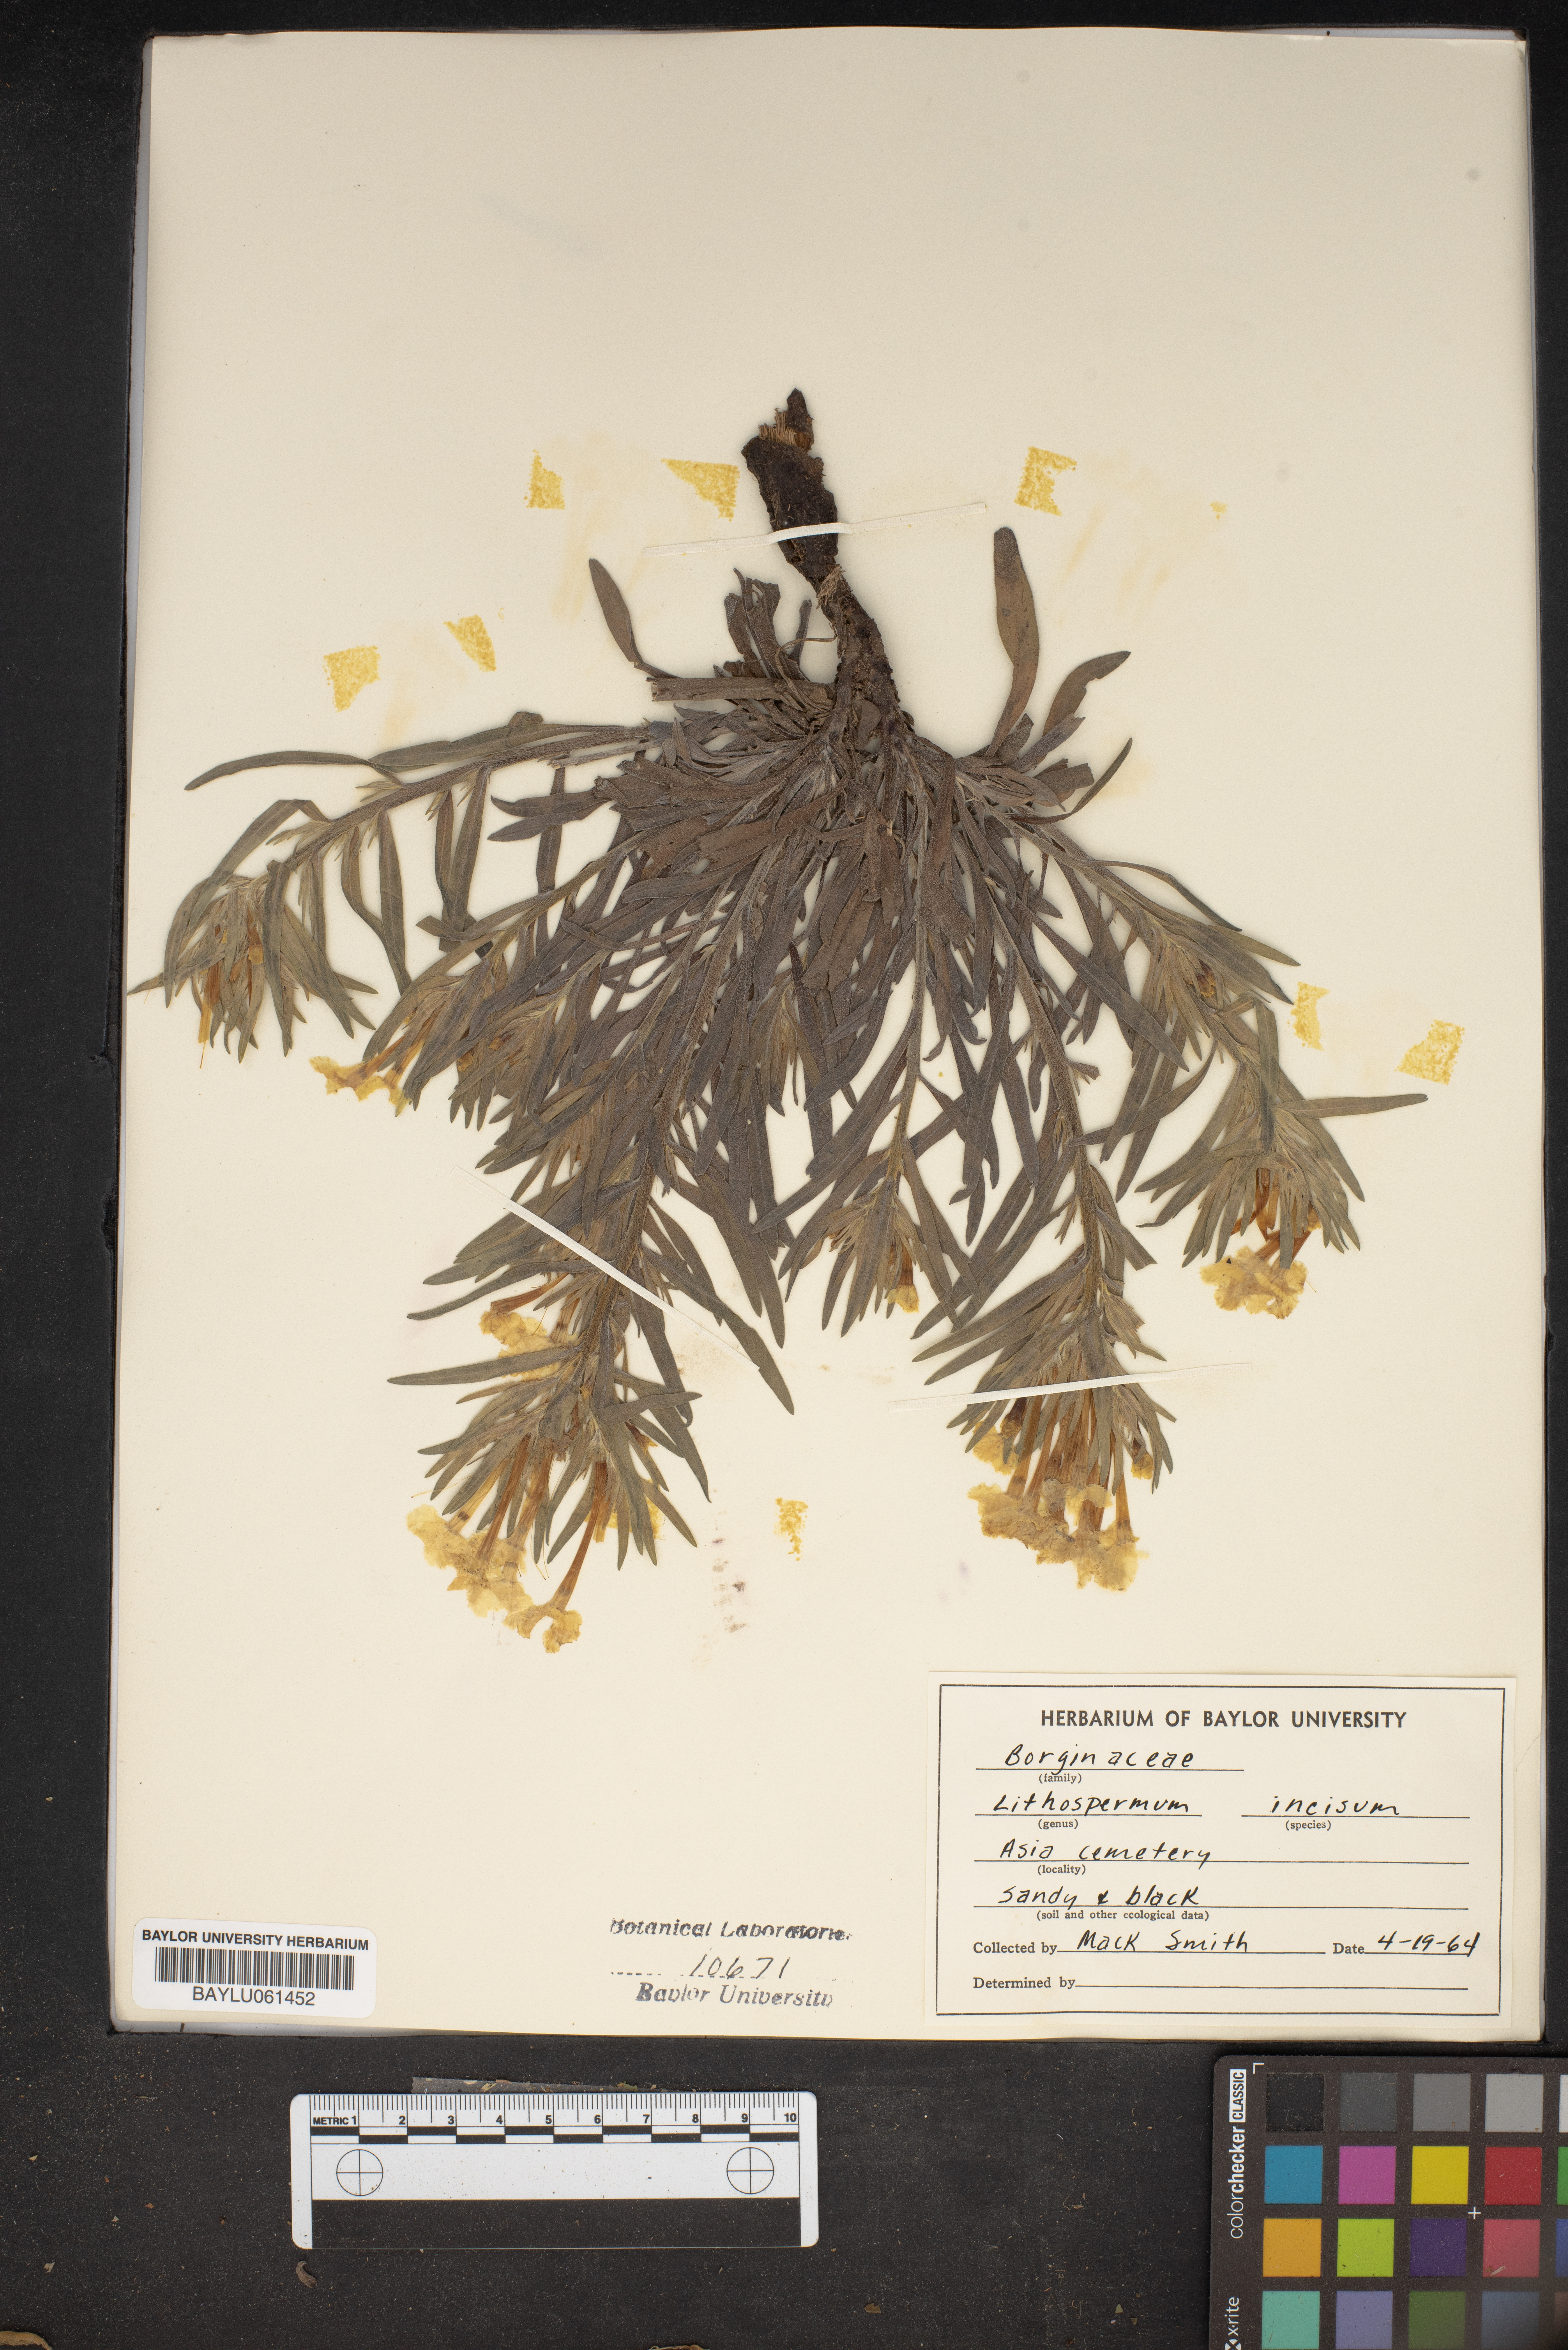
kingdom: Plantae
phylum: Tracheophyta
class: Magnoliopsida
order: Boraginales
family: Boraginaceae
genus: Lithospermum
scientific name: Lithospermum incisum
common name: Fringed gromwell
